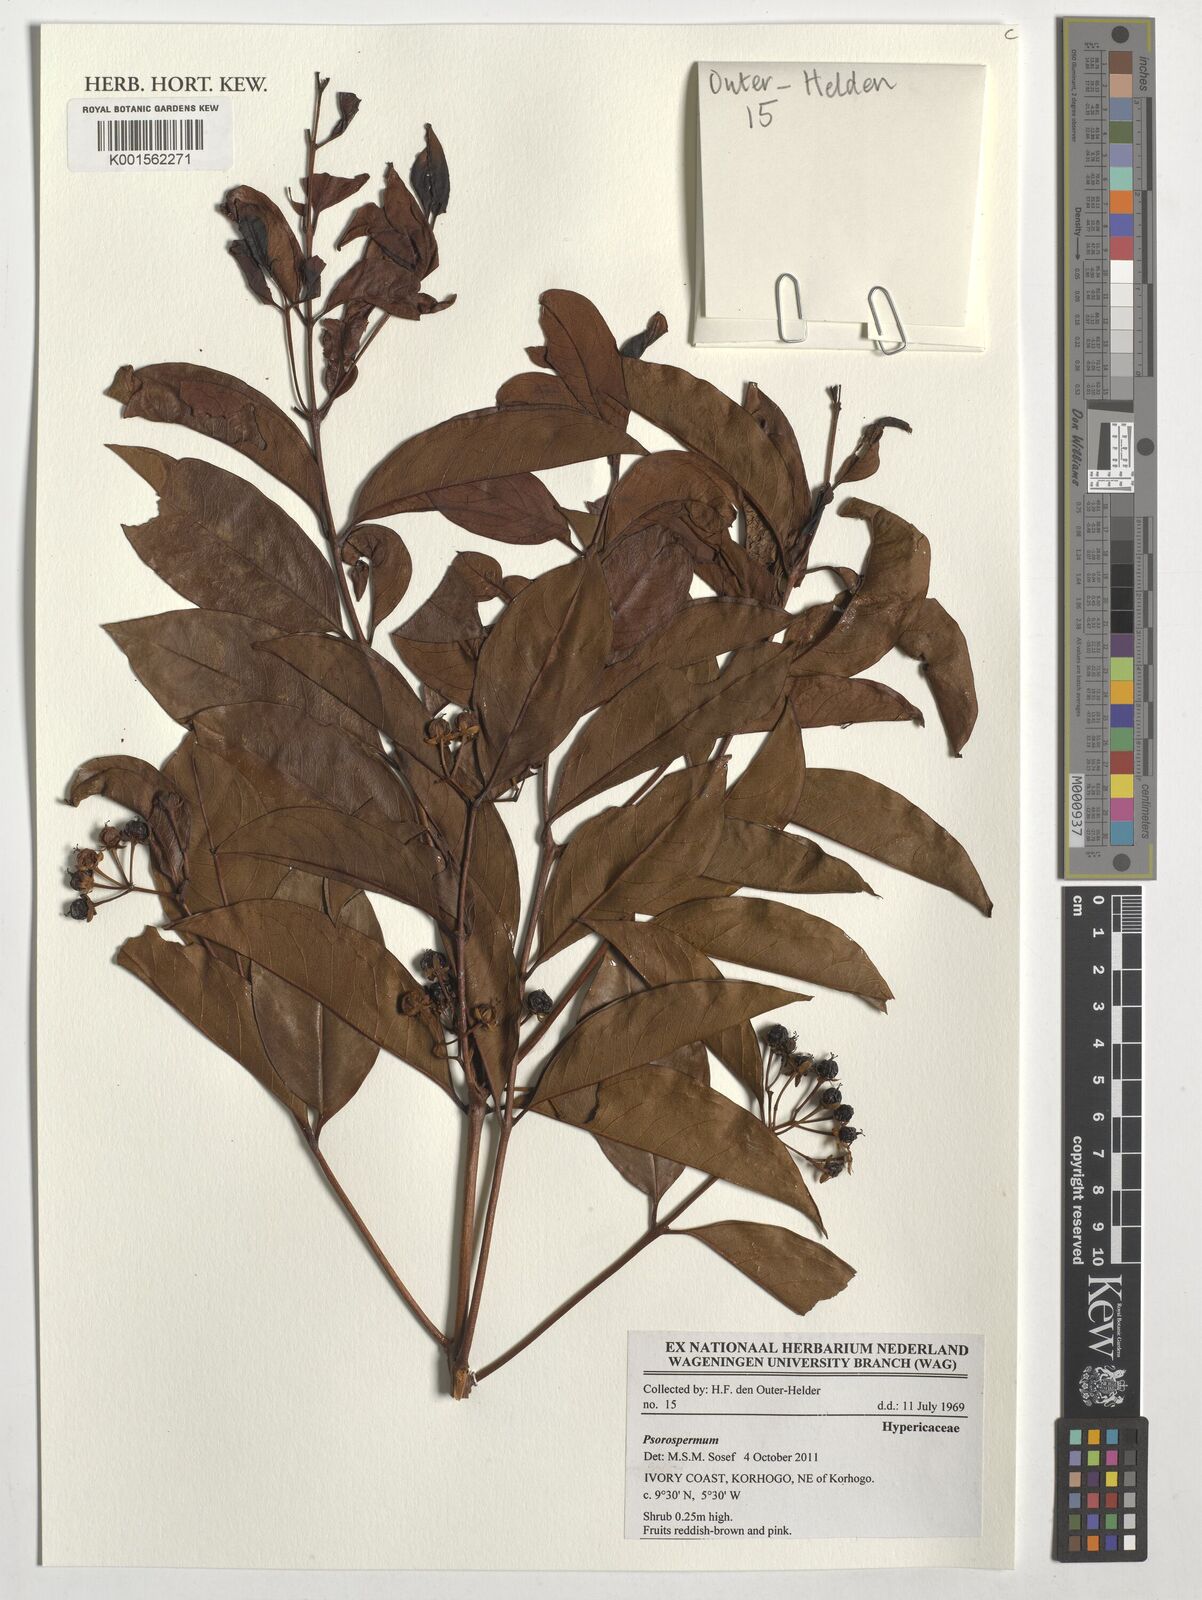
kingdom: Plantae
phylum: Tracheophyta
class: Magnoliopsida
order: Malpighiales
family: Hypericaceae
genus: Psorospermum
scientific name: Psorospermum
